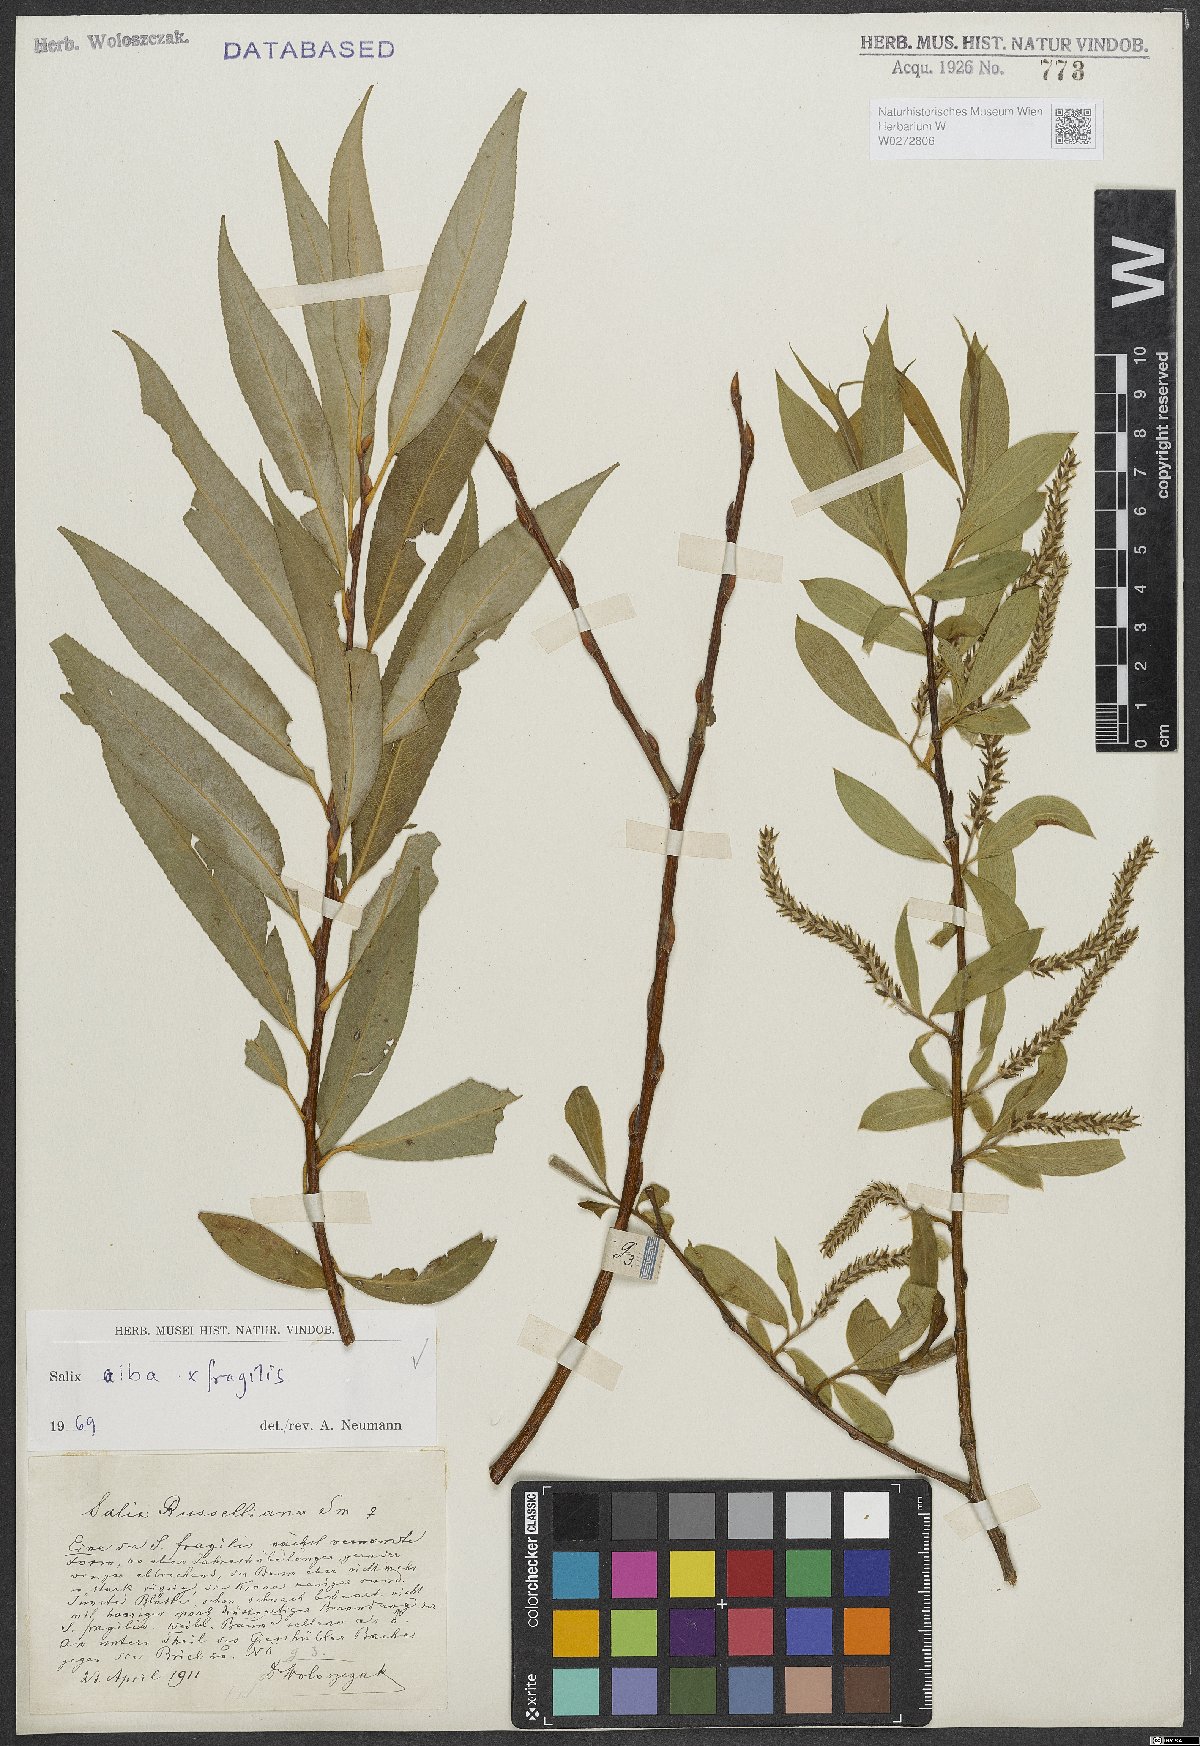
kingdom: Plantae
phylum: Tracheophyta
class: Magnoliopsida
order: Malpighiales
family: Salicaceae
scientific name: Salicaceae
